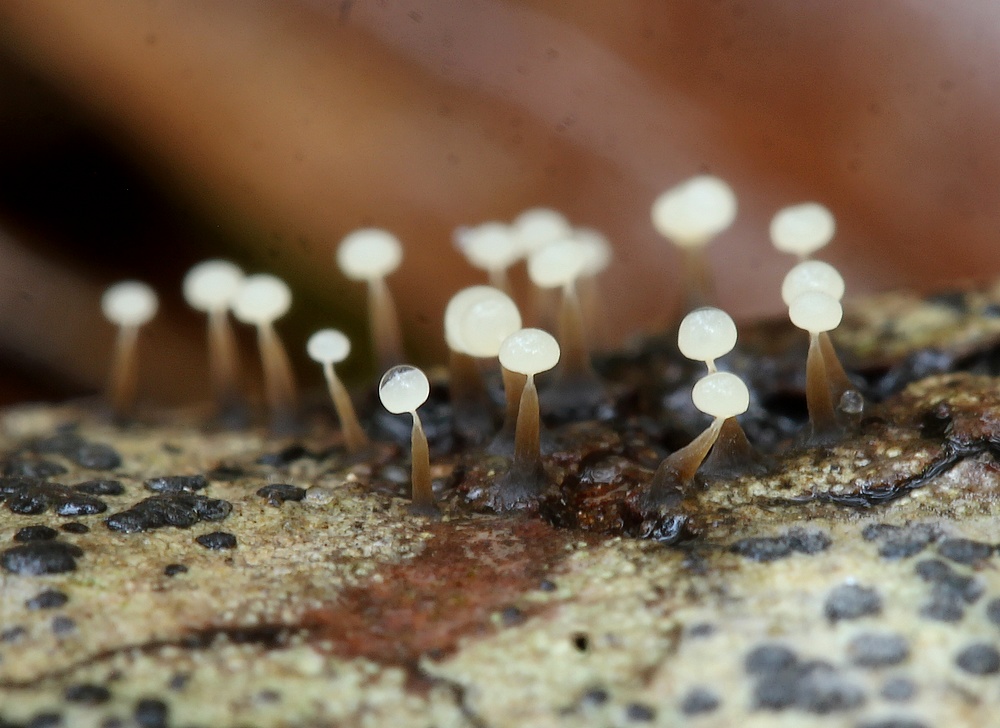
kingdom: Protozoa
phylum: Mycetozoa
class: Myxomycetes
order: Physarales
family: Physaraceae
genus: Physarum
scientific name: Physarum
